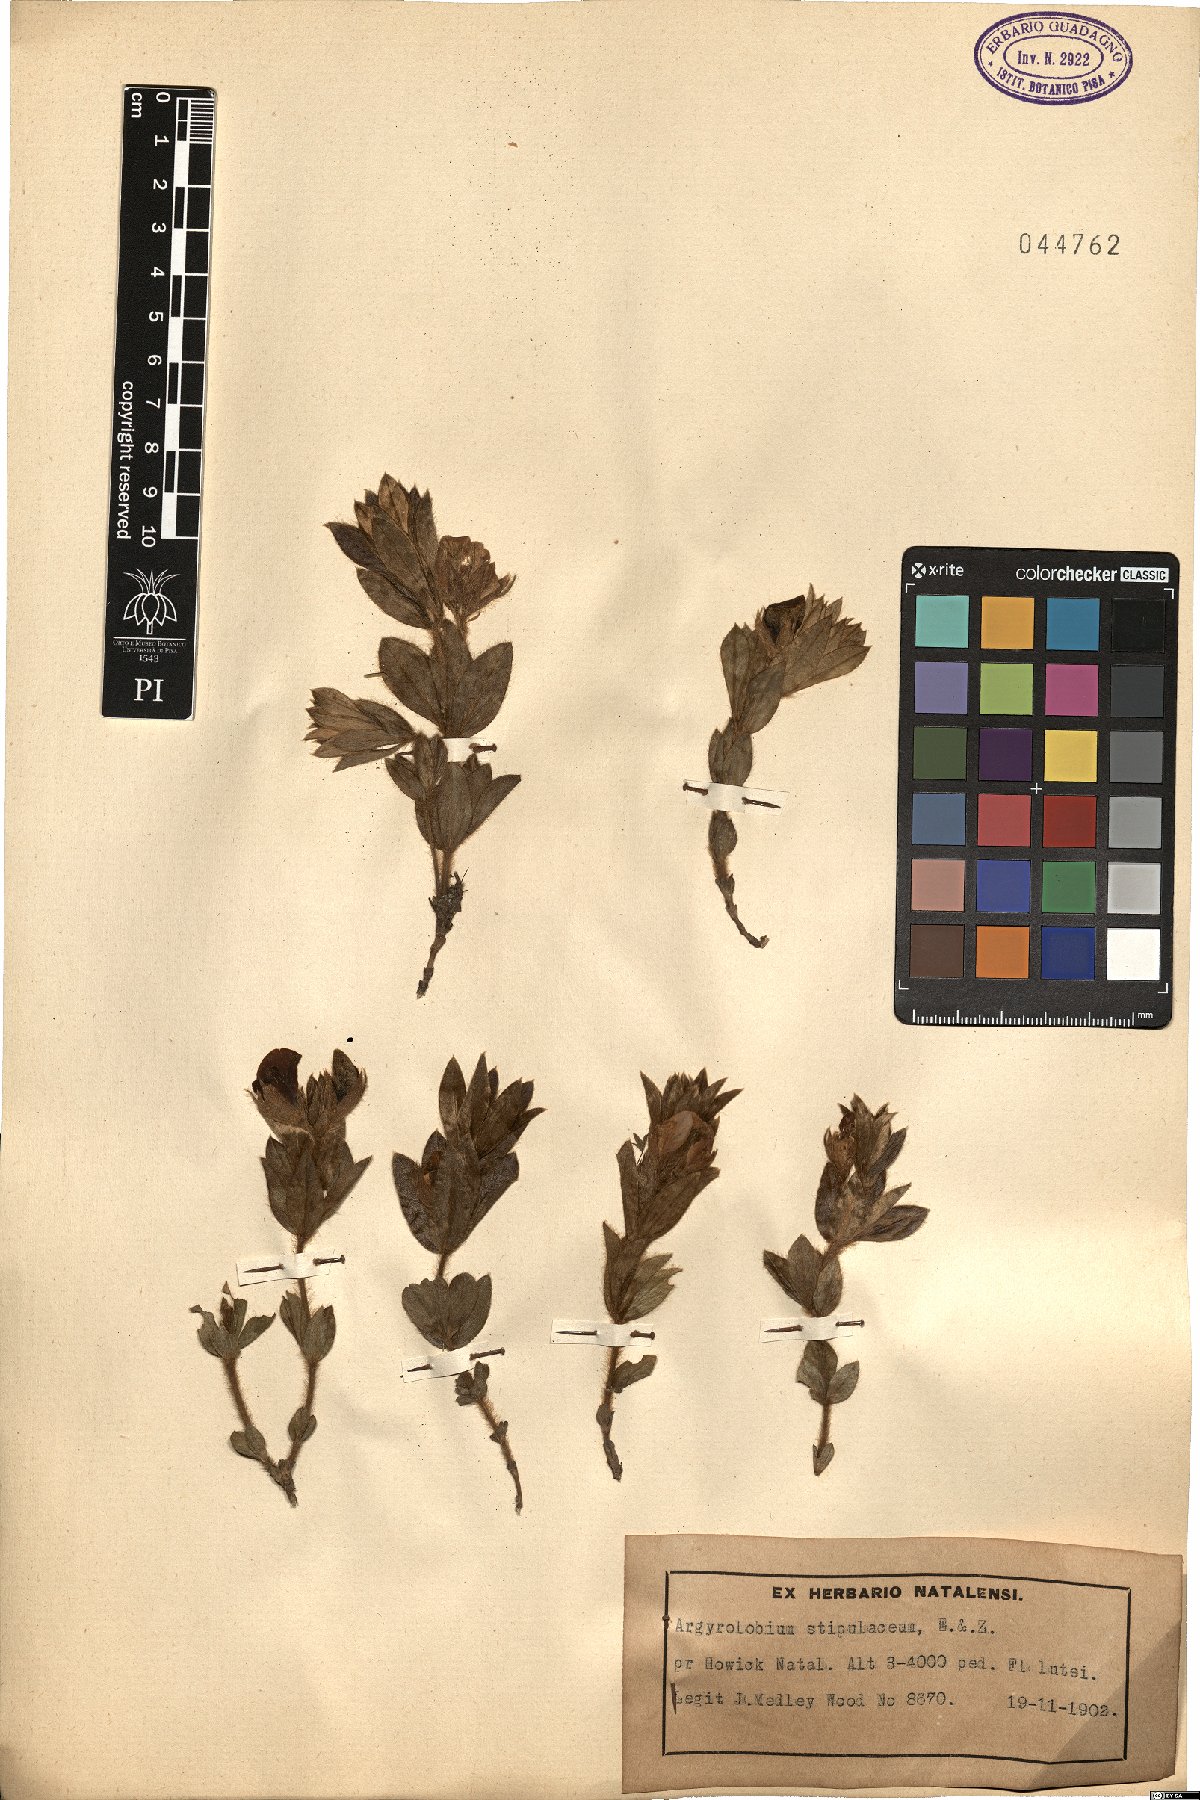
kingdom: Plantae
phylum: Tracheophyta
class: Magnoliopsida
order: Fabales
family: Fabaceae
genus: Argyrolobium
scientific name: Argyrolobium stipulaceum
